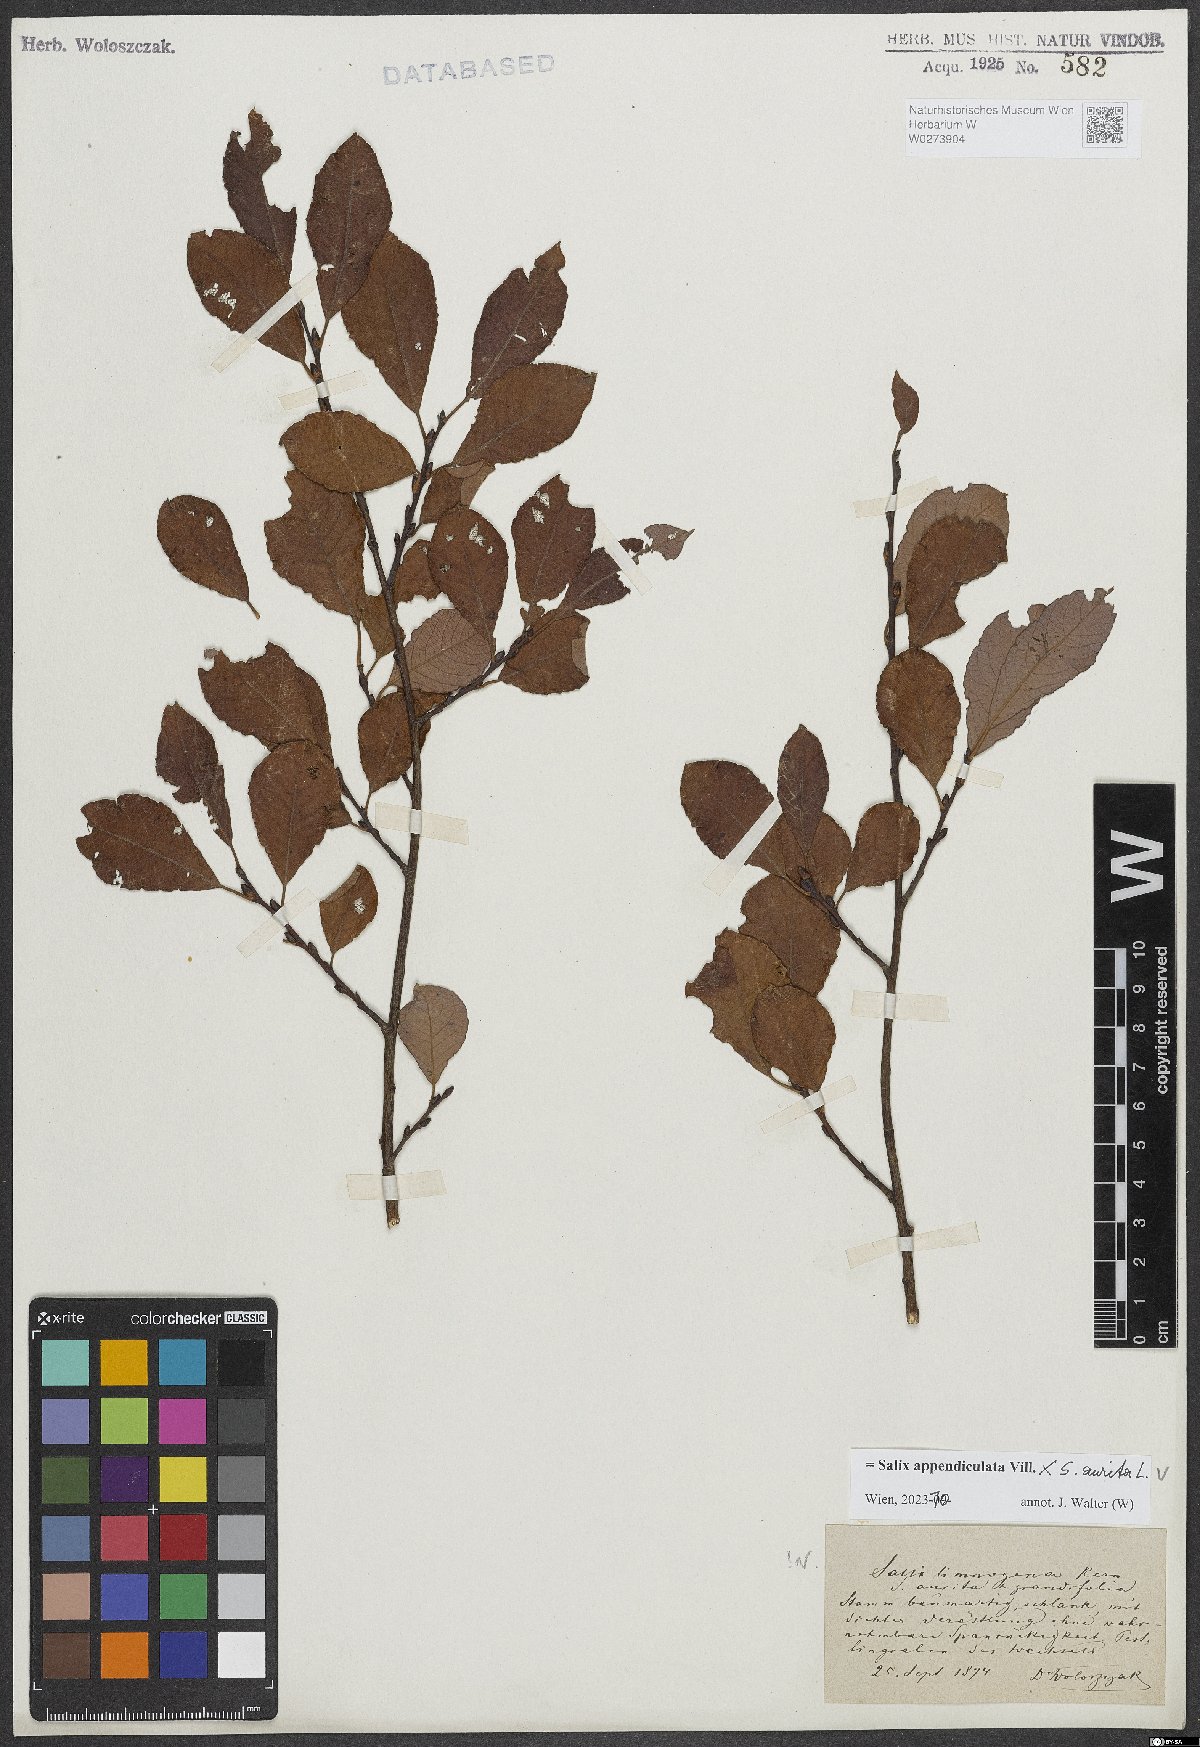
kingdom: Plantae
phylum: Tracheophyta
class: Magnoliopsida
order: Malpighiales
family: Salicaceae
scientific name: Salicaceae
